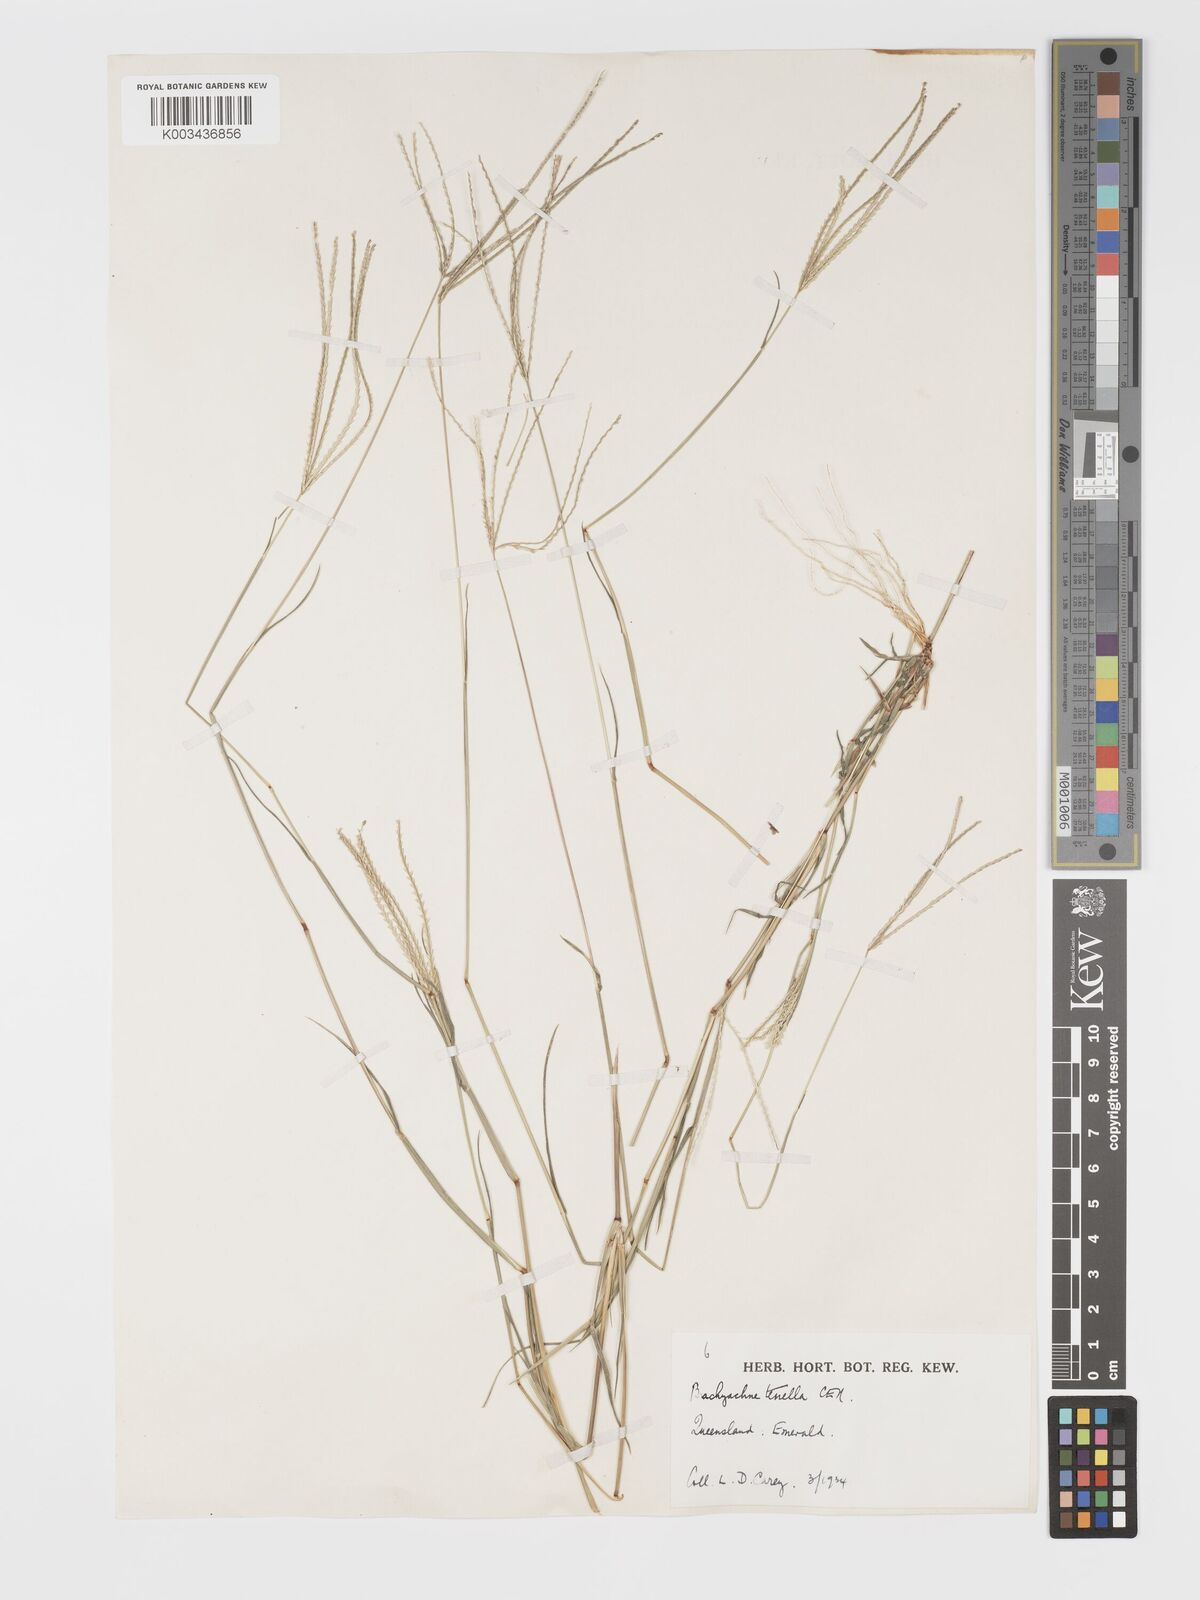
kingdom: Plantae
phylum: Tracheophyta
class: Liliopsida
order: Poales
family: Poaceae
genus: Cynodon
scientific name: Cynodon tenellus
